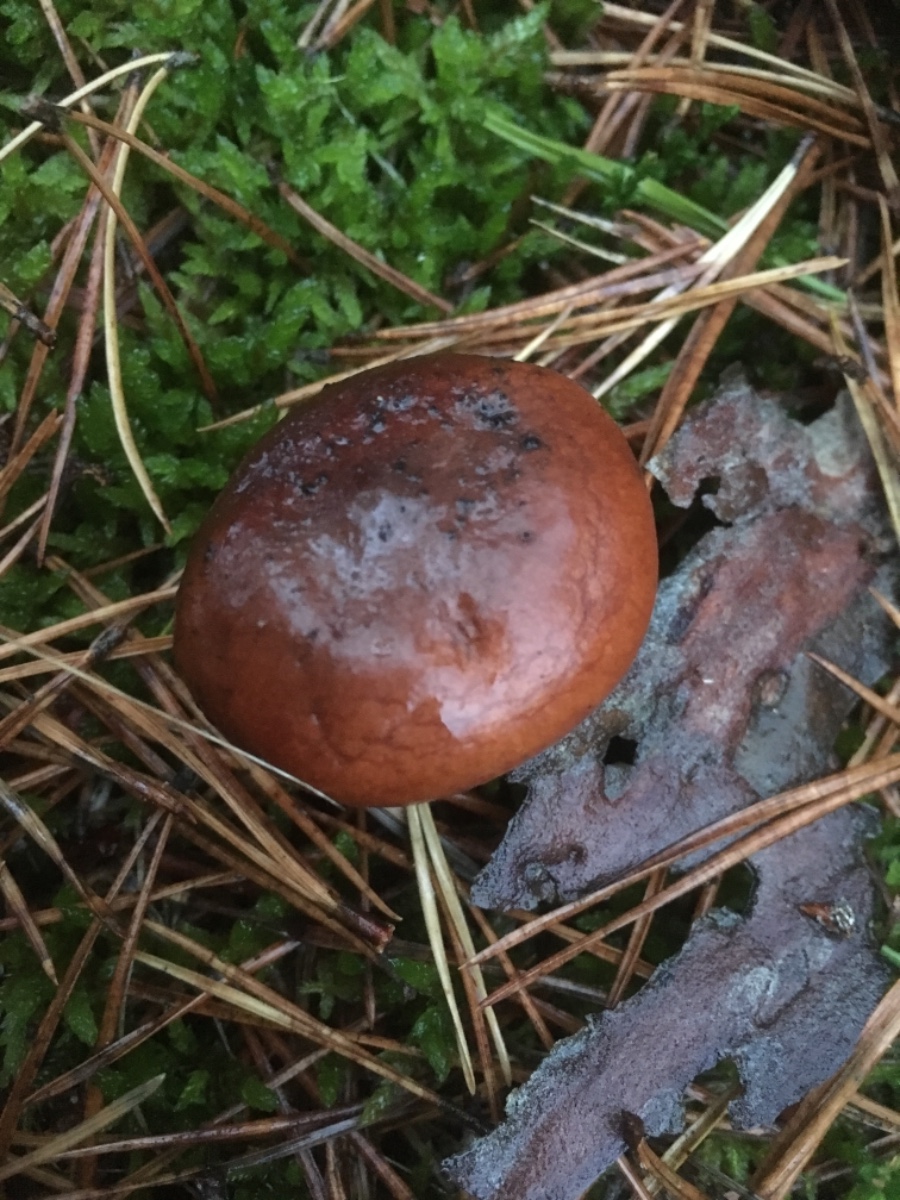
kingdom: Fungi
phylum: Basidiomycota
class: Agaricomycetes
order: Russulales
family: Russulaceae
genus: Lactarius
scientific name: Lactarius rufus
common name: rødbrun mælkehat
